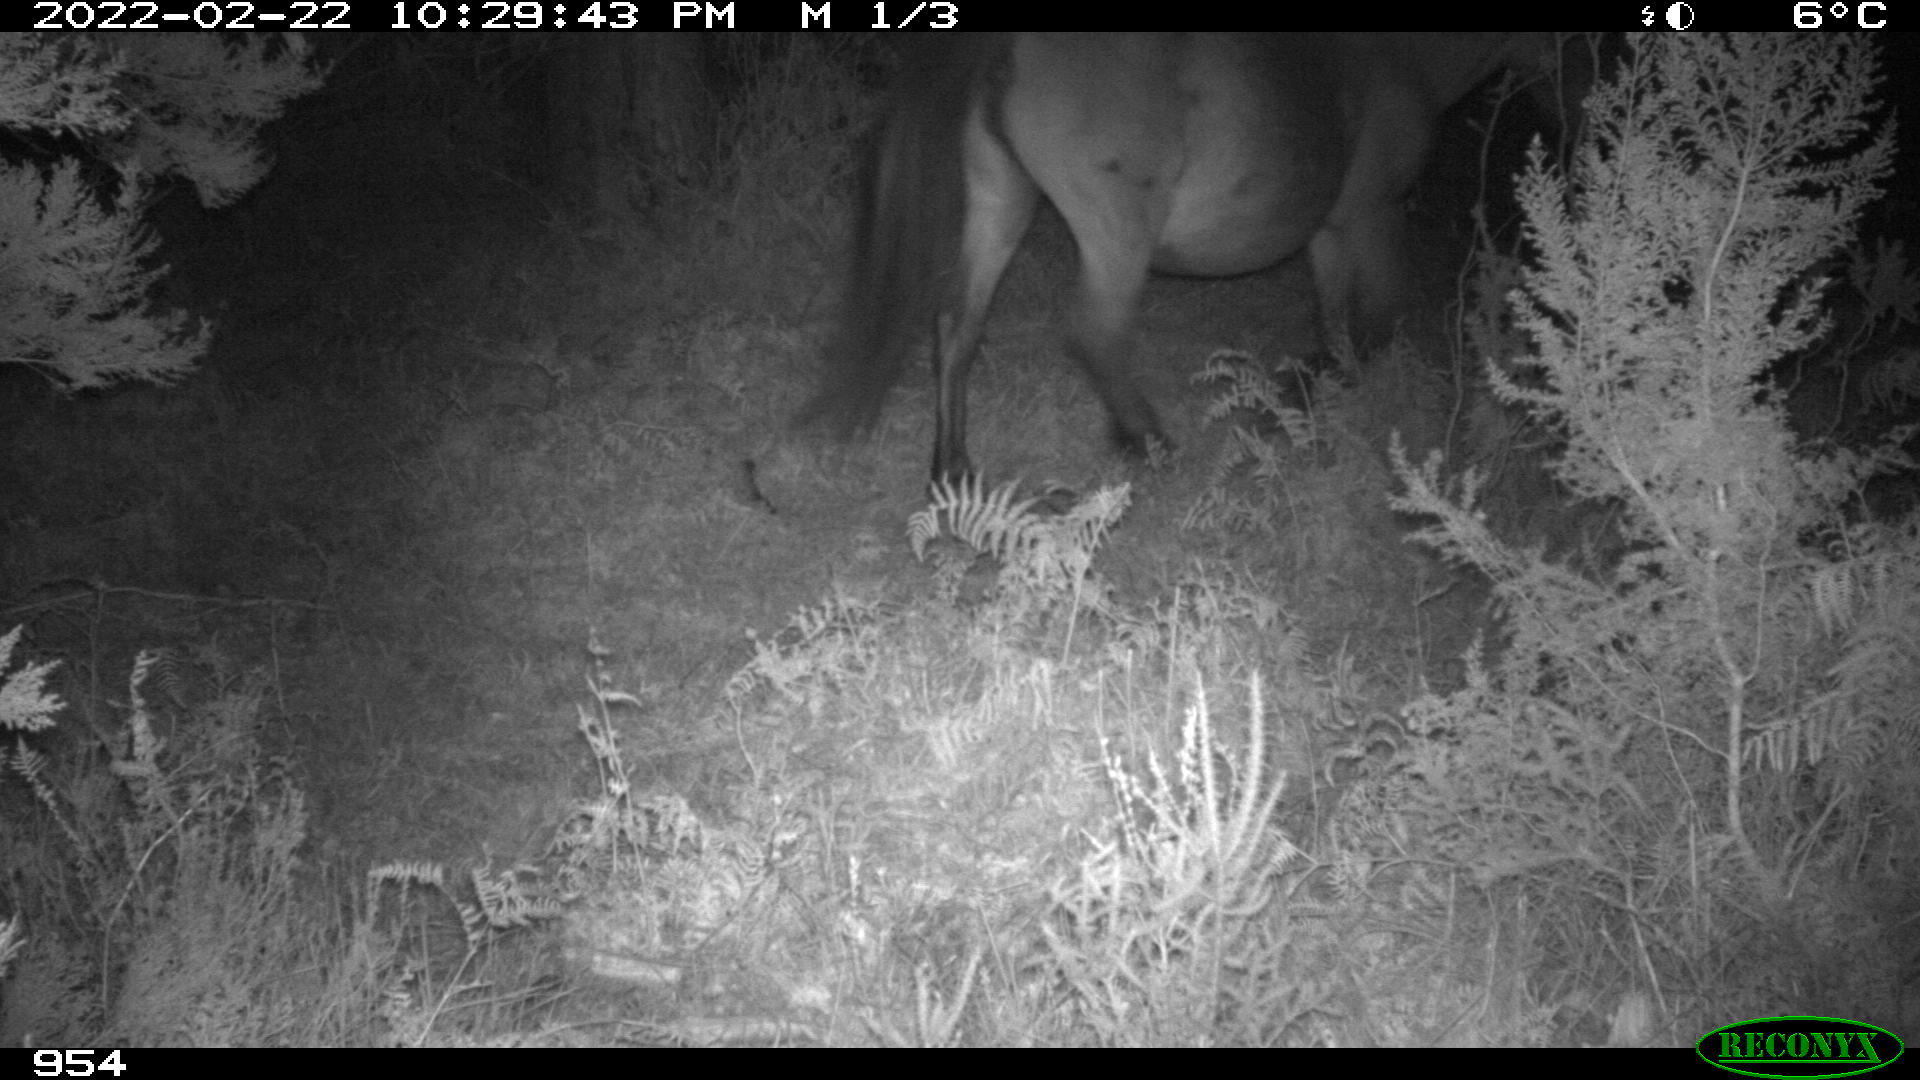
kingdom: Animalia
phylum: Chordata
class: Mammalia
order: Perissodactyla
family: Equidae
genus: Equus
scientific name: Equus caballus
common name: Horse
